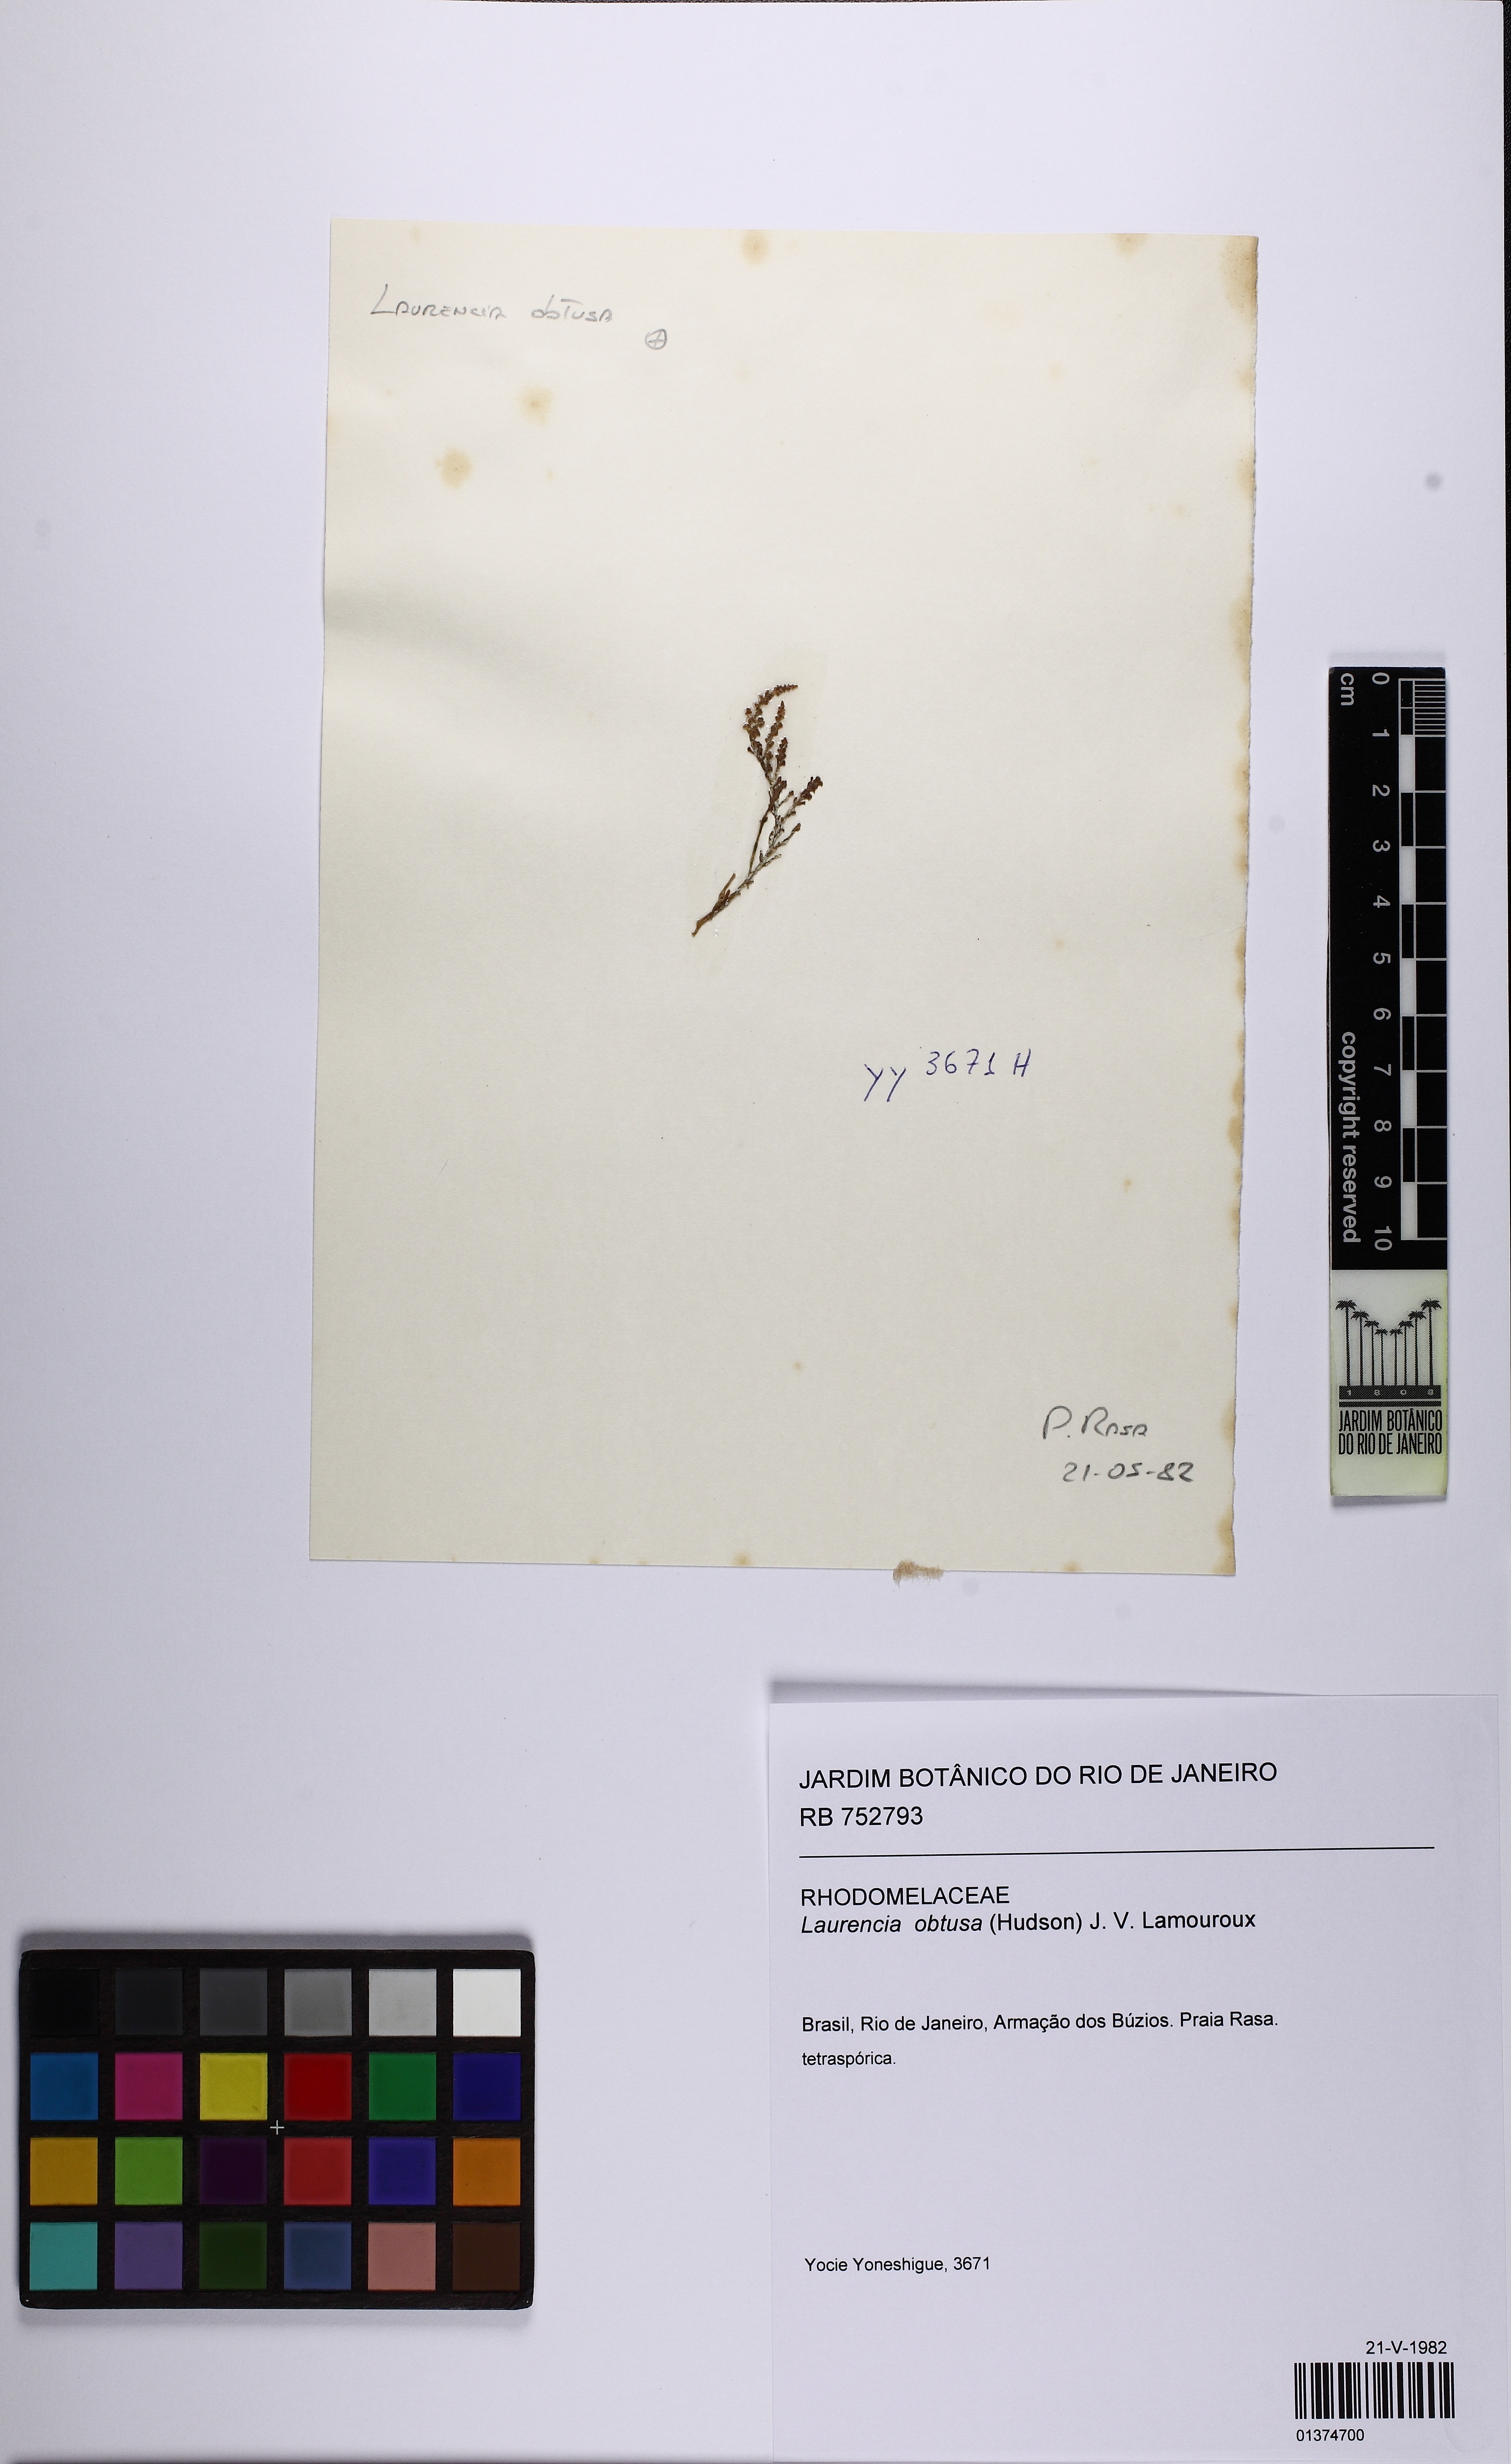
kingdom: Plantae
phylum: Rhodophyta
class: Florideophyceae
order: Ceramiales
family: Rhodomelaceae
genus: Laurencia
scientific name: Laurencia dendroidea
